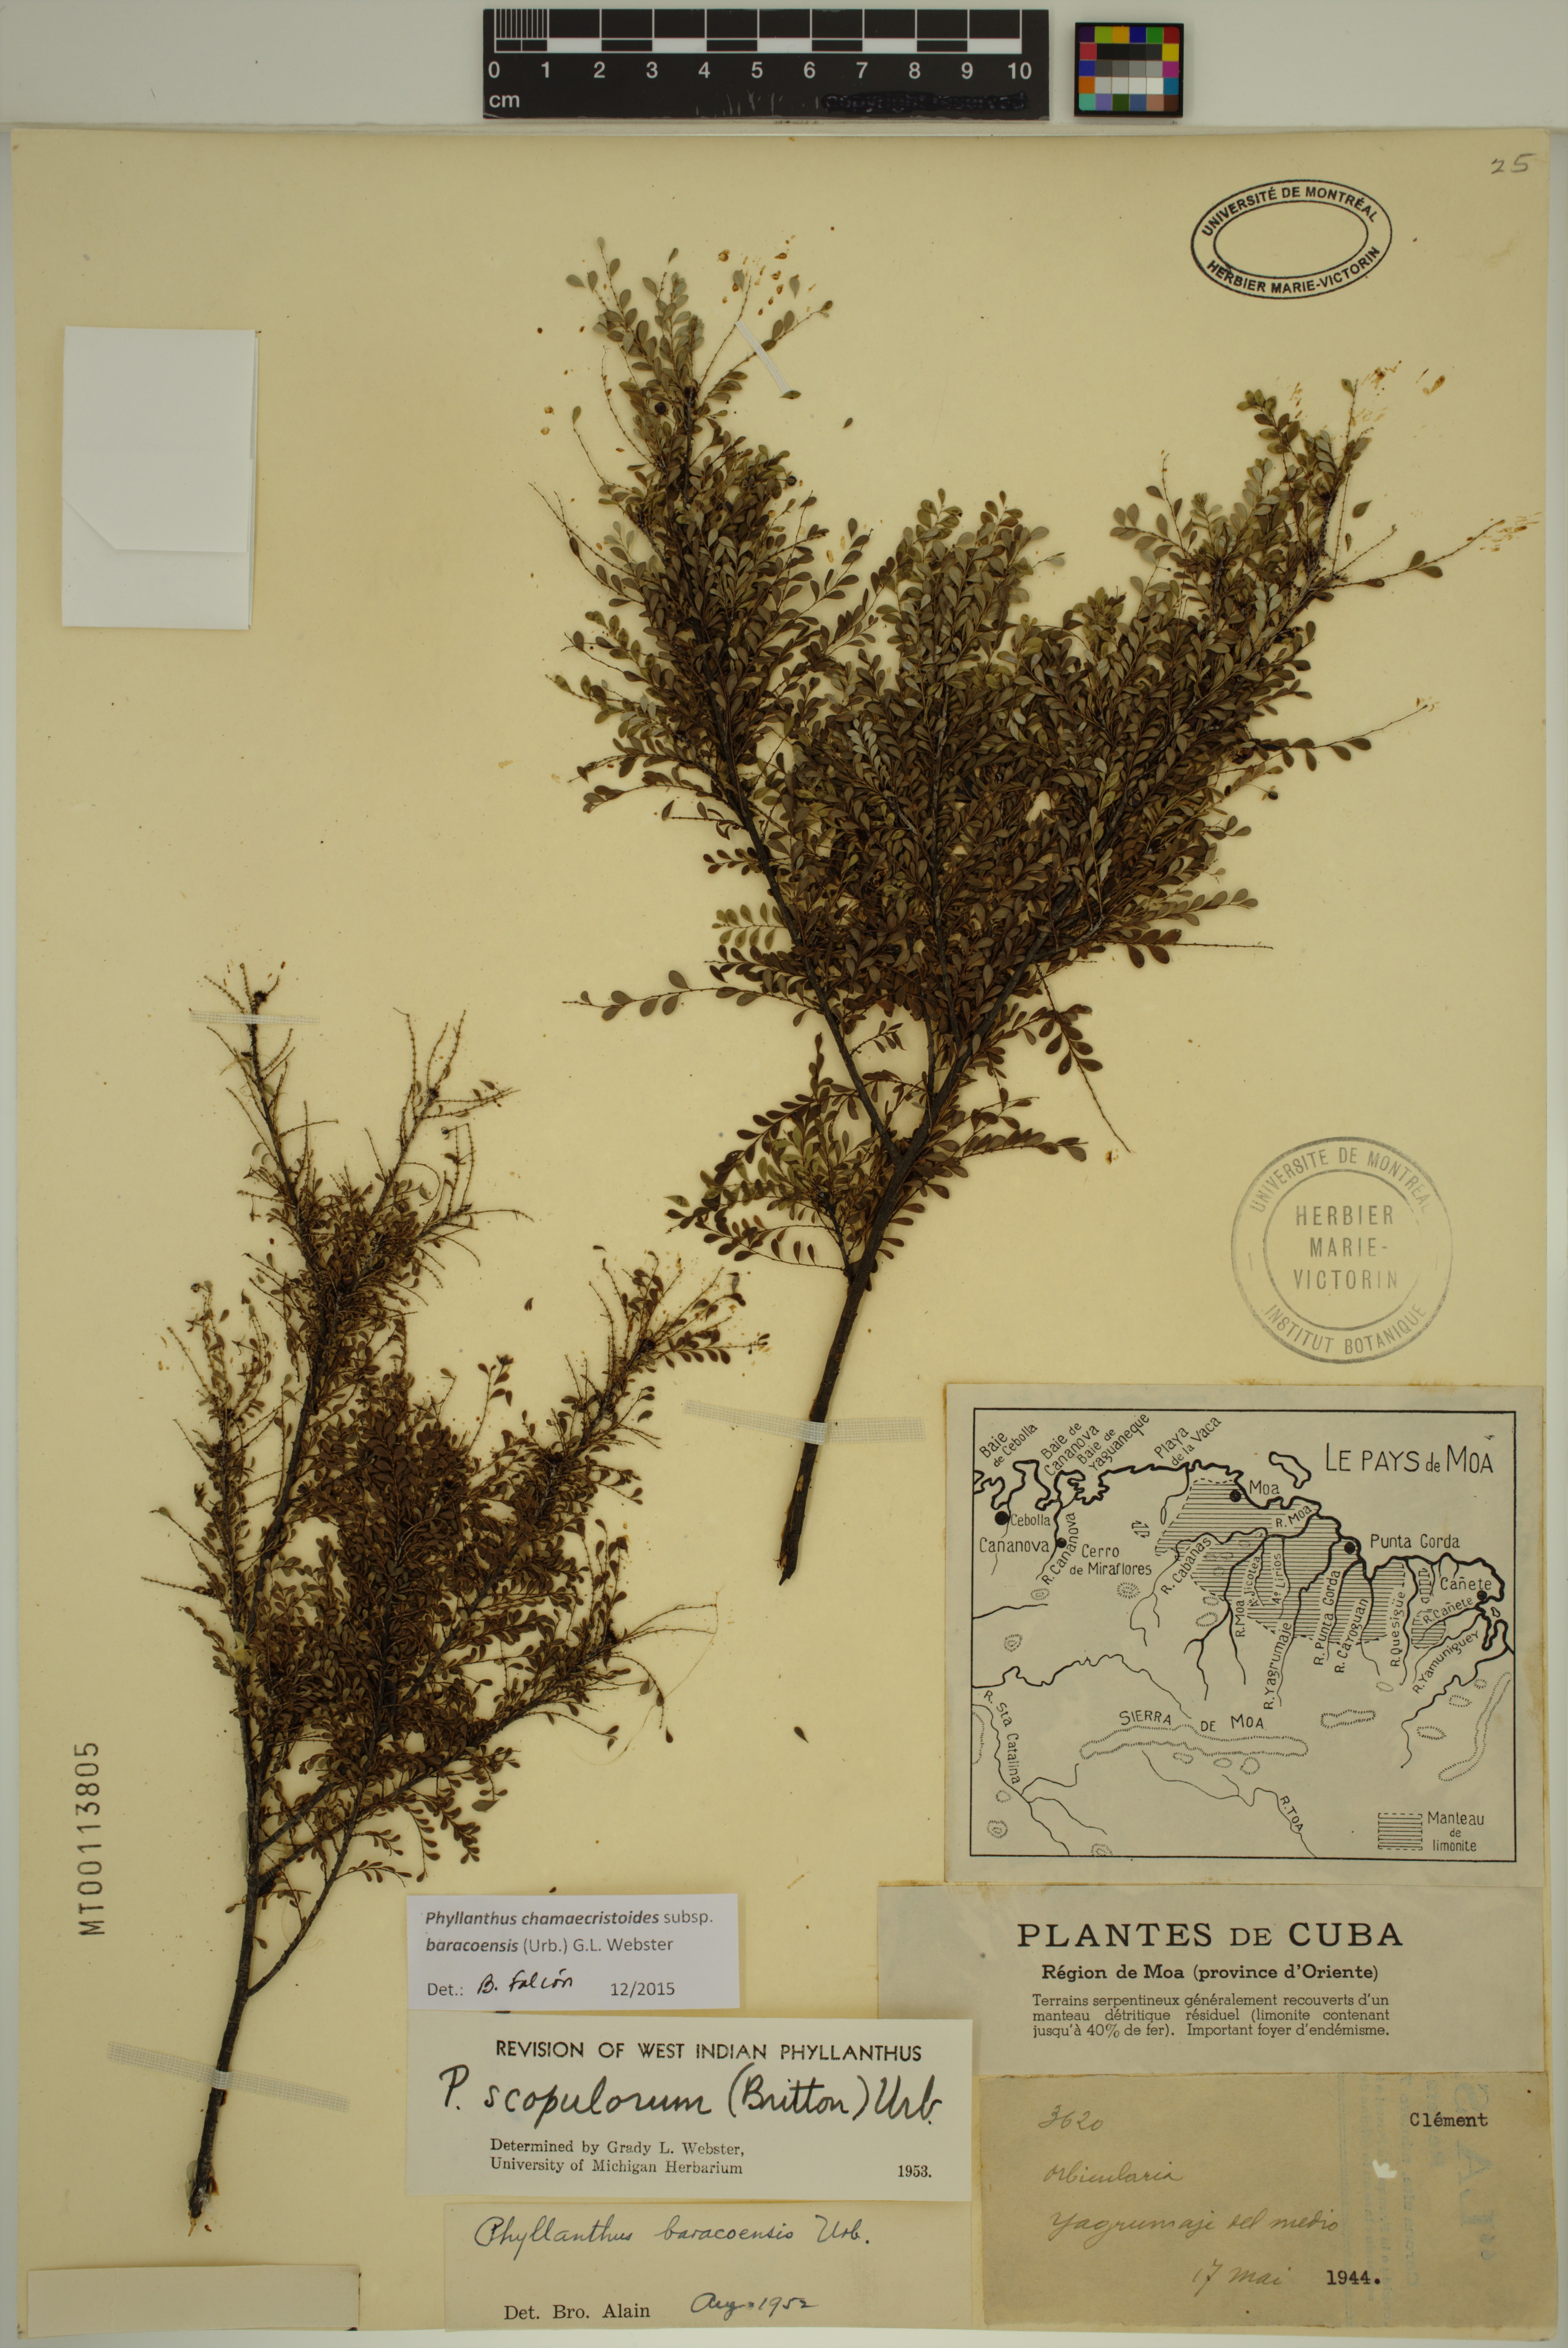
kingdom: Plantae
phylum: Tracheophyta
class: Magnoliopsida
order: Malpighiales
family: Phyllanthaceae
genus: Phyllanthus
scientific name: Phyllanthus chamaecristoides
